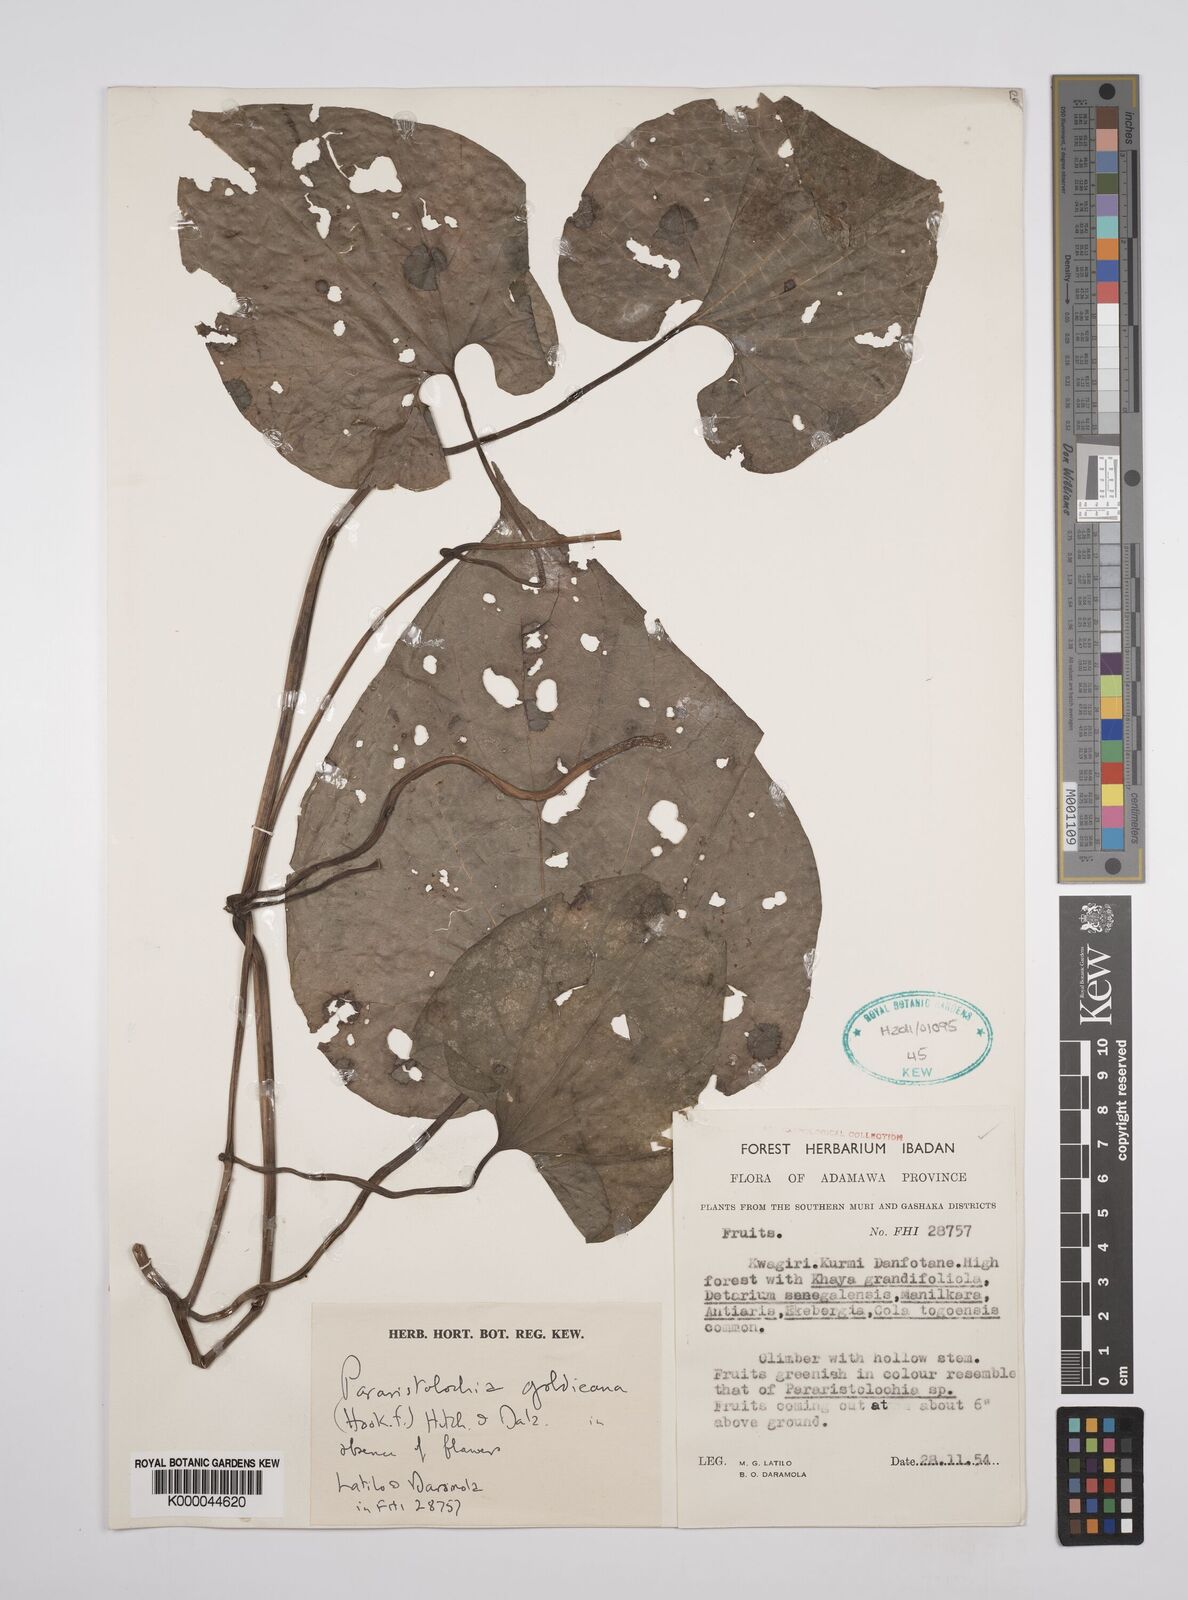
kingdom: Plantae
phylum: Tracheophyta
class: Magnoliopsida
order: Piperales
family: Aristolochiaceae
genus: Aristolochia
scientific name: Aristolochia goldieana
